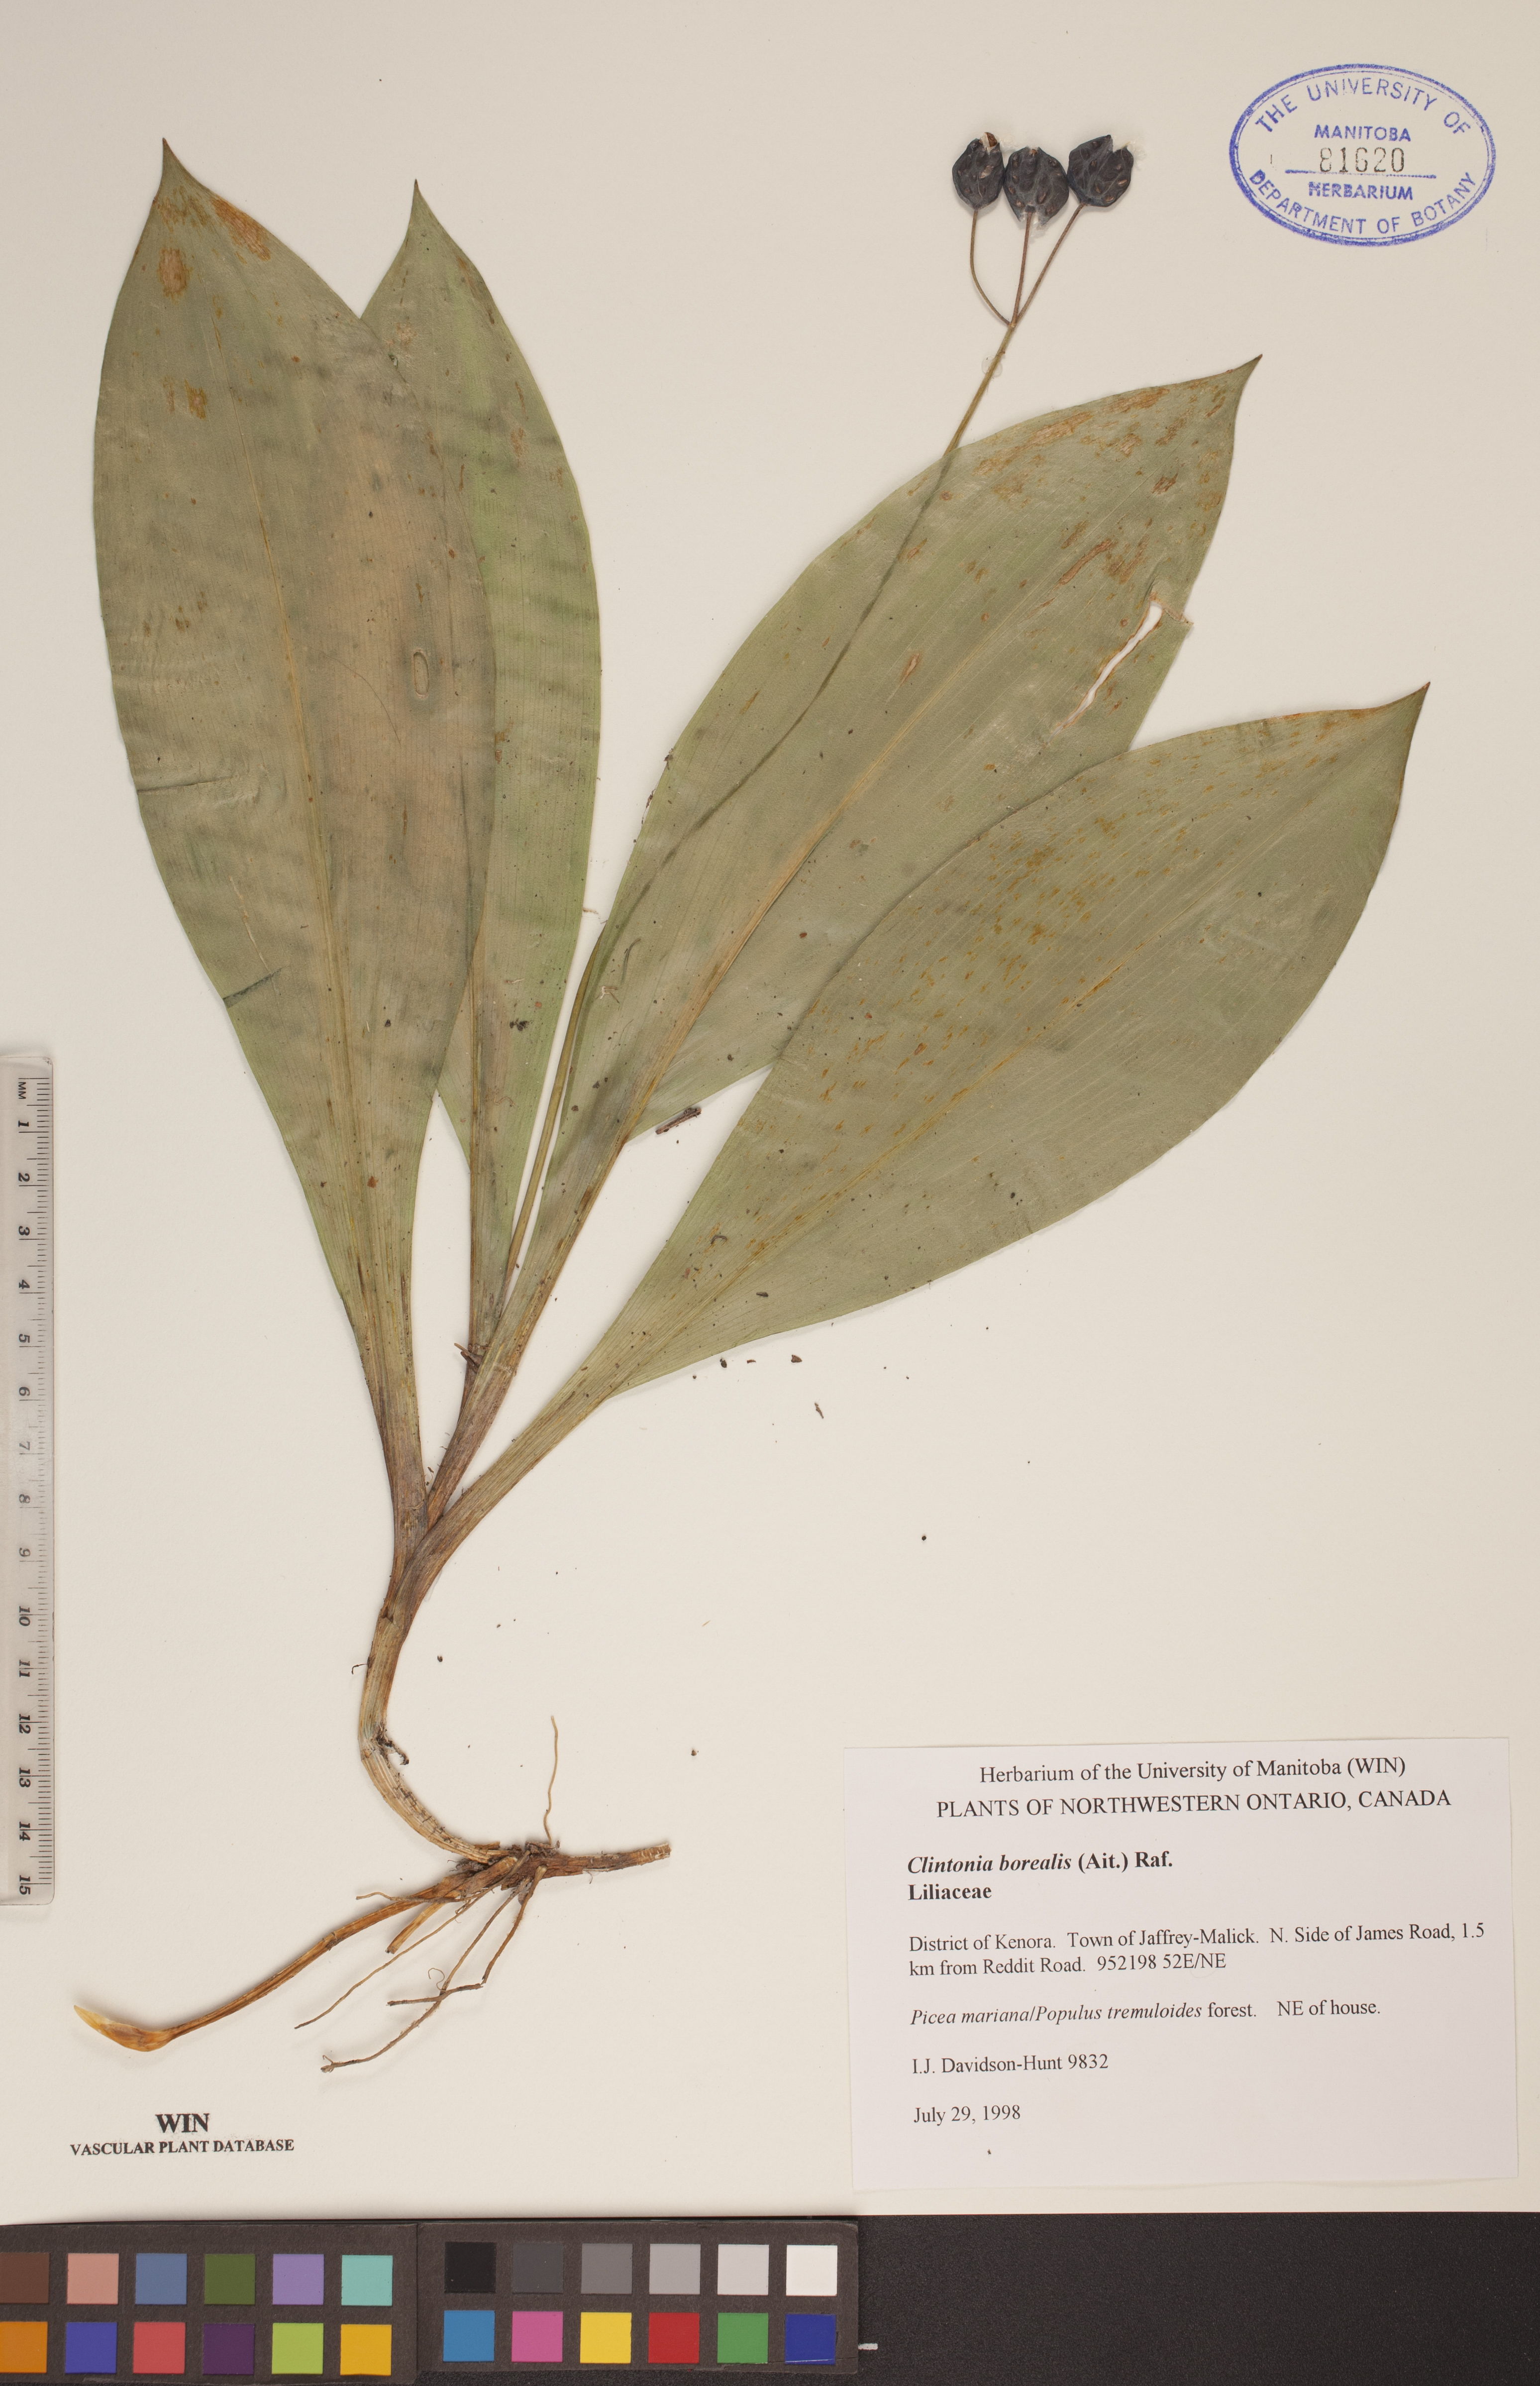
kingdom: Plantae
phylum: Tracheophyta
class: Liliopsida
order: Liliales
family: Liliaceae
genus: Clintonia
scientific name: Clintonia borealis
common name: Yellow clintonia
